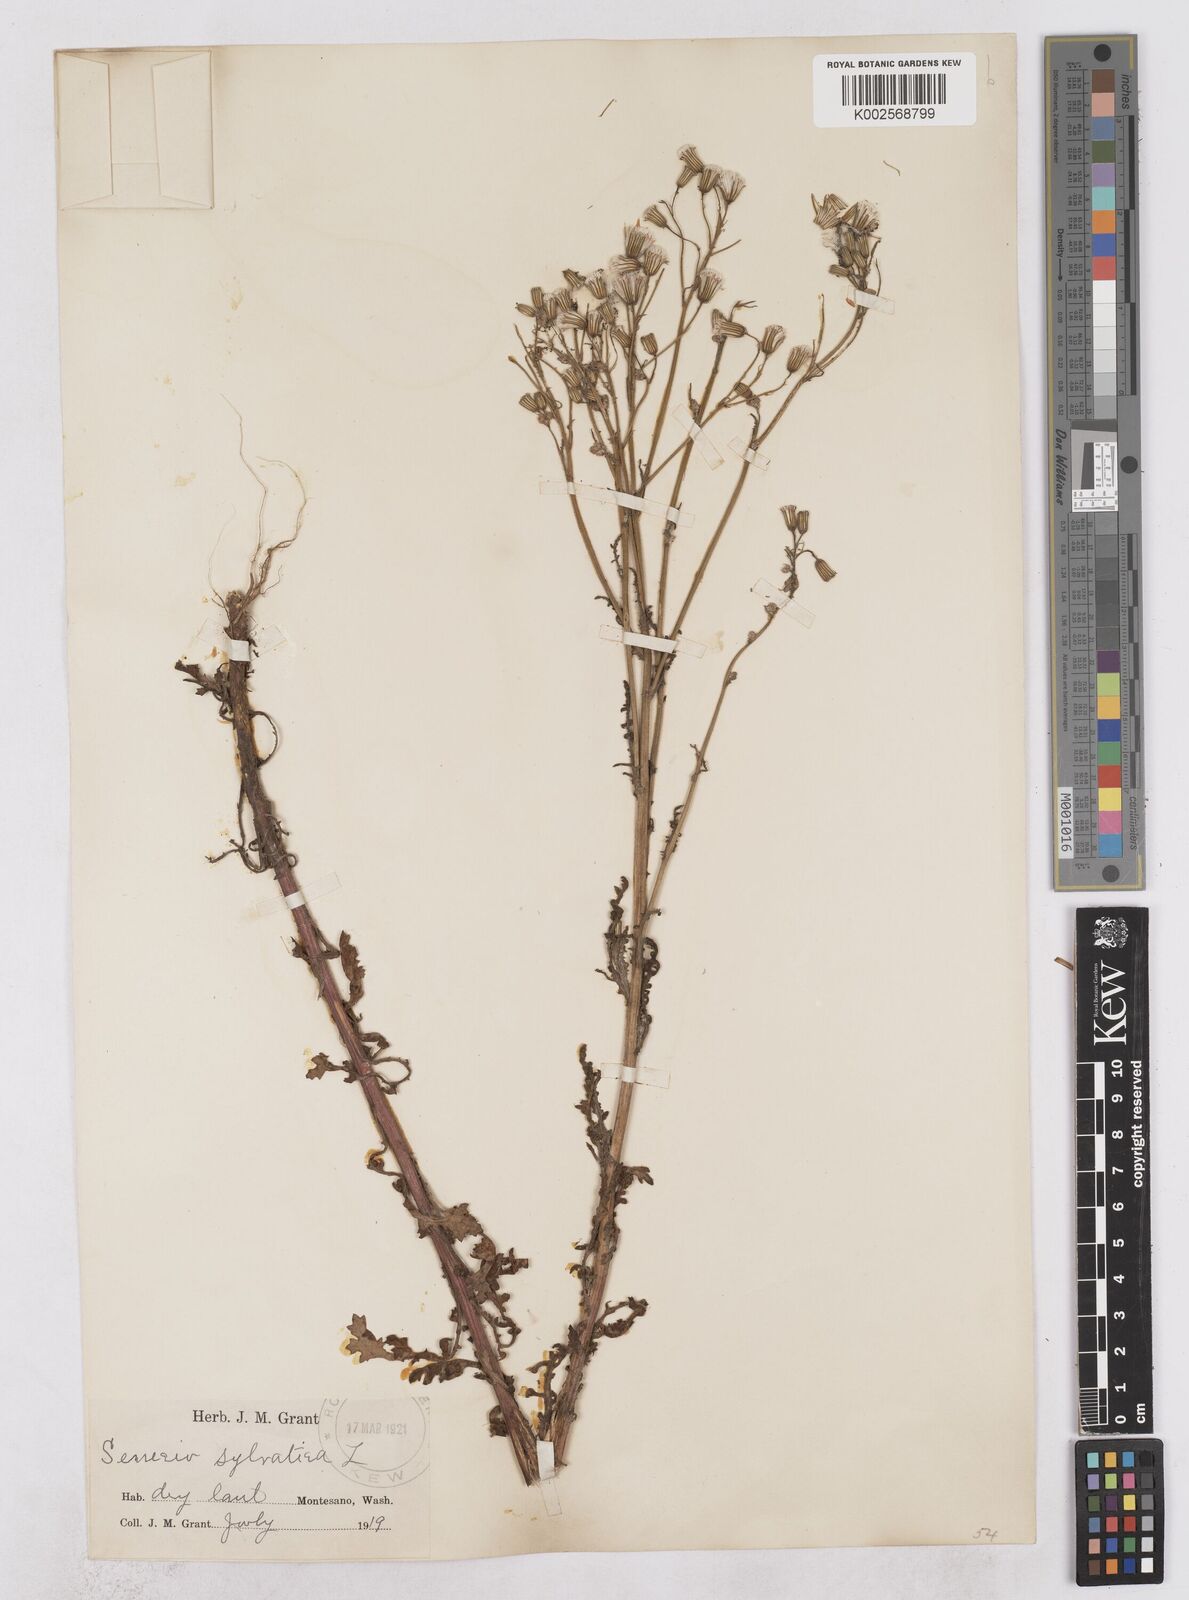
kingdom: Plantae
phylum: Tracheophyta
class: Magnoliopsida
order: Asterales
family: Asteraceae
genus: Senecio
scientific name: Senecio sylvaticus
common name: Woodland ragwort
